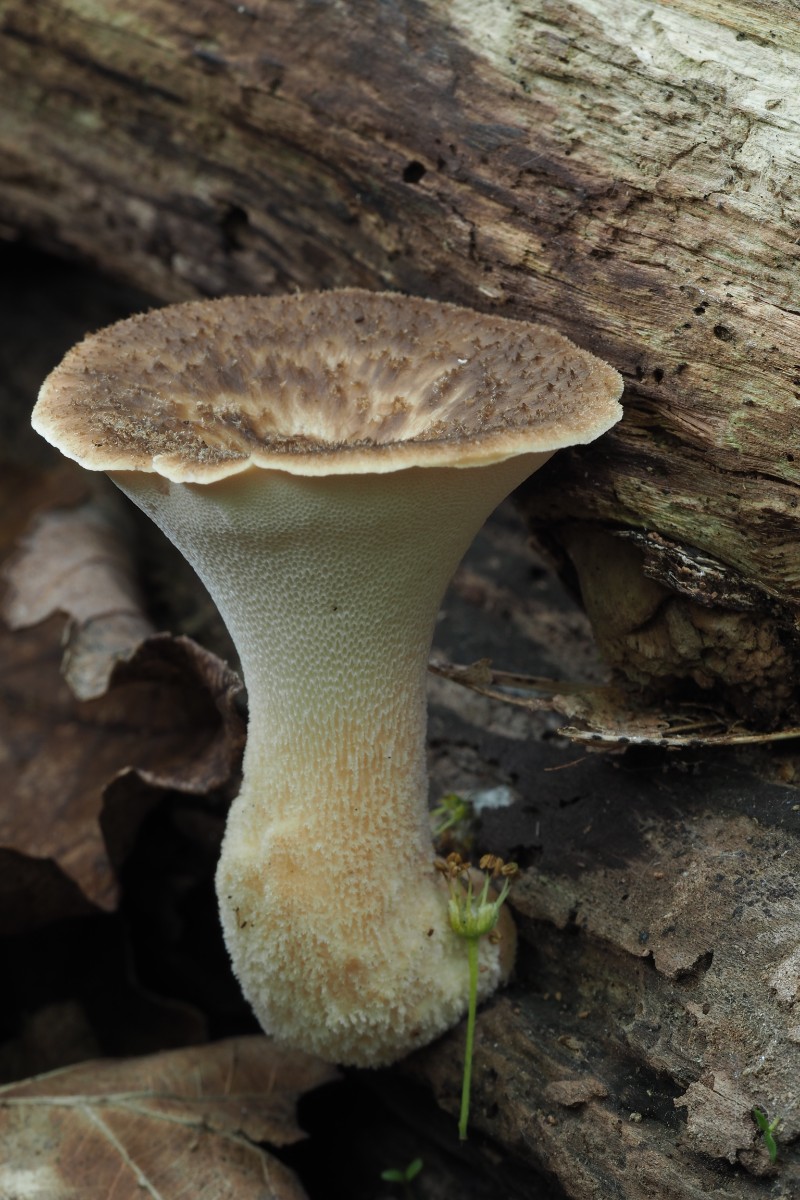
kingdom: Fungi
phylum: Basidiomycota
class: Agaricomycetes
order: Polyporales
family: Polyporaceae
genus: Polyporus
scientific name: Polyporus tuberaster
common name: knoldet stilkporesvamp
